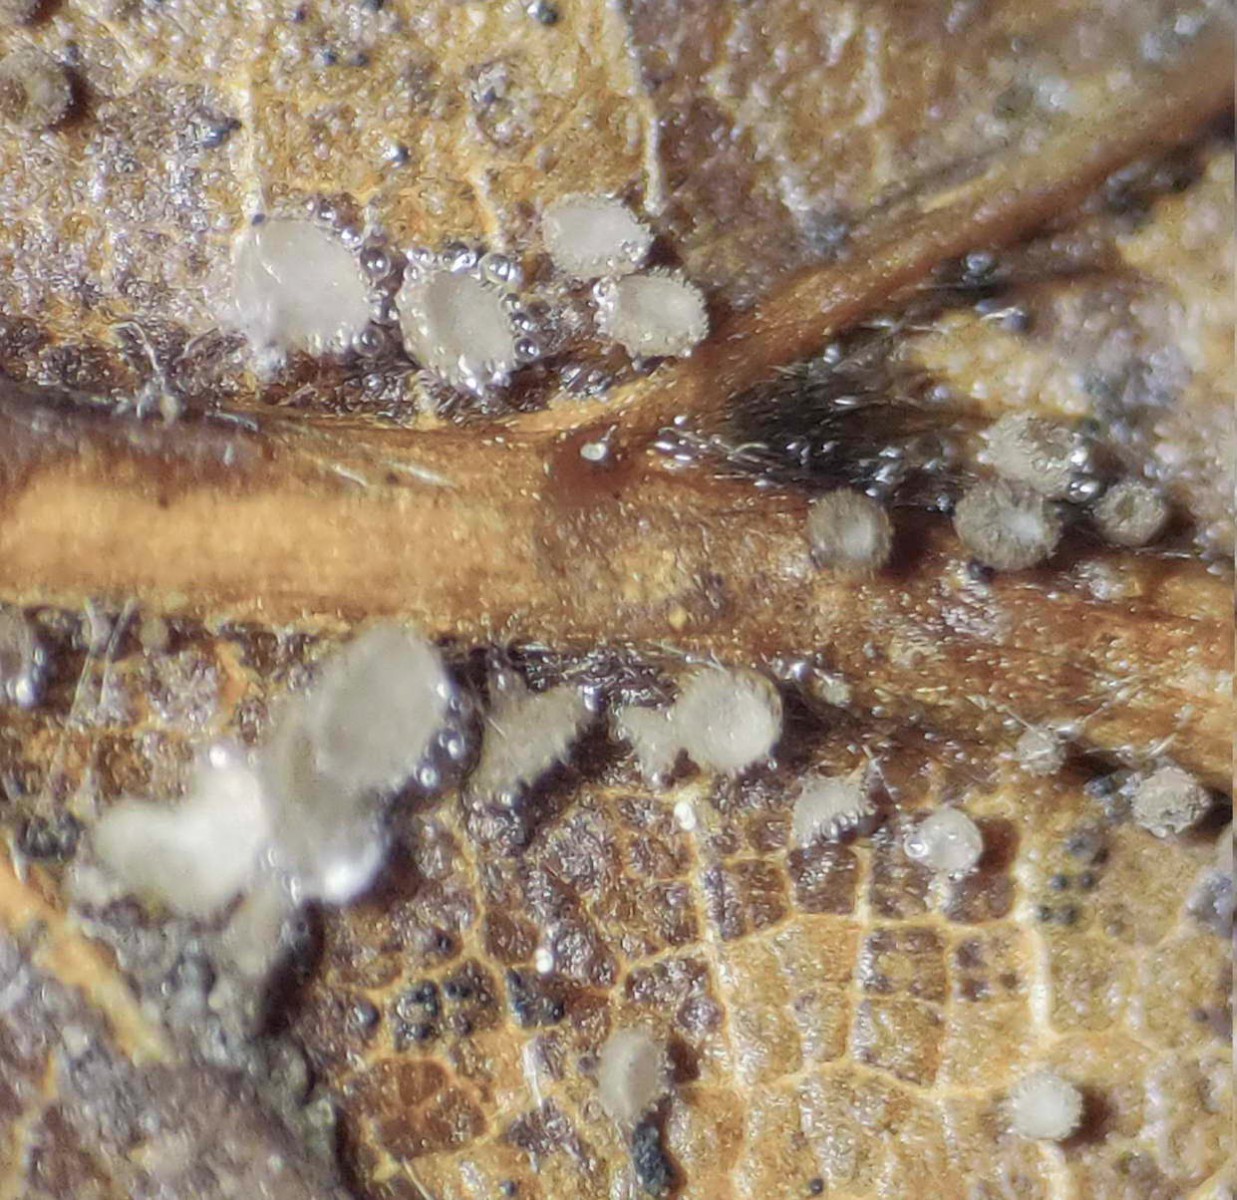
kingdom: Fungi
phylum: Ascomycota
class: Leotiomycetes
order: Helotiales
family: Lachnaceae
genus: Brunnipila
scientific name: Brunnipila fuscescens
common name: bøge-frynseskive
